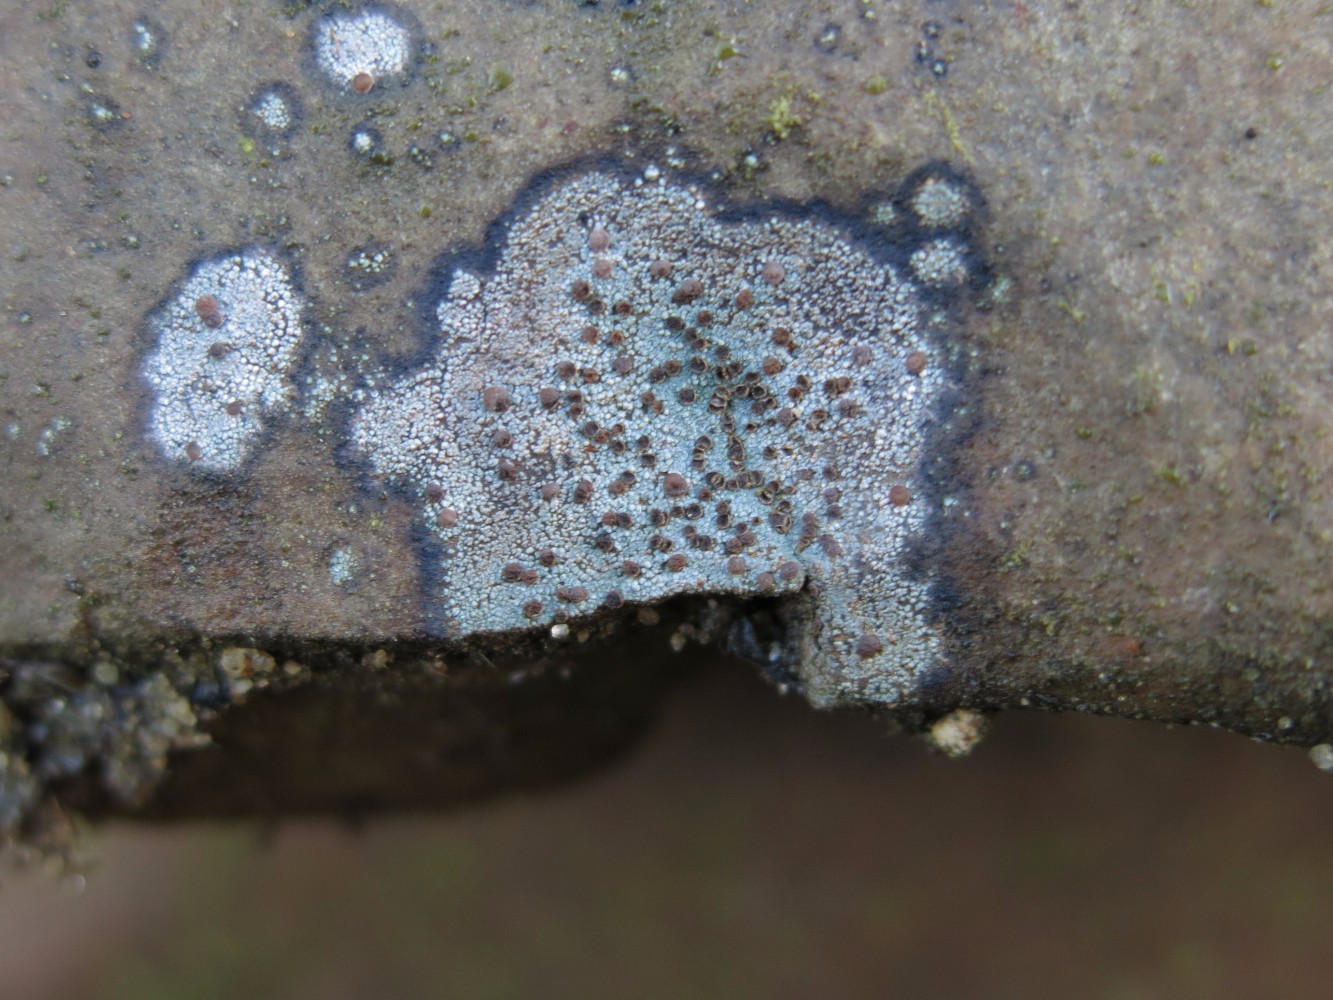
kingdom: Fungi
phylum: Ascomycota
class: Lecanoromycetes
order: Baeomycetales
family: Trapeliaceae
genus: Trapelia
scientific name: Trapelia coarctata
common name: hvidrandet brunskivelav
